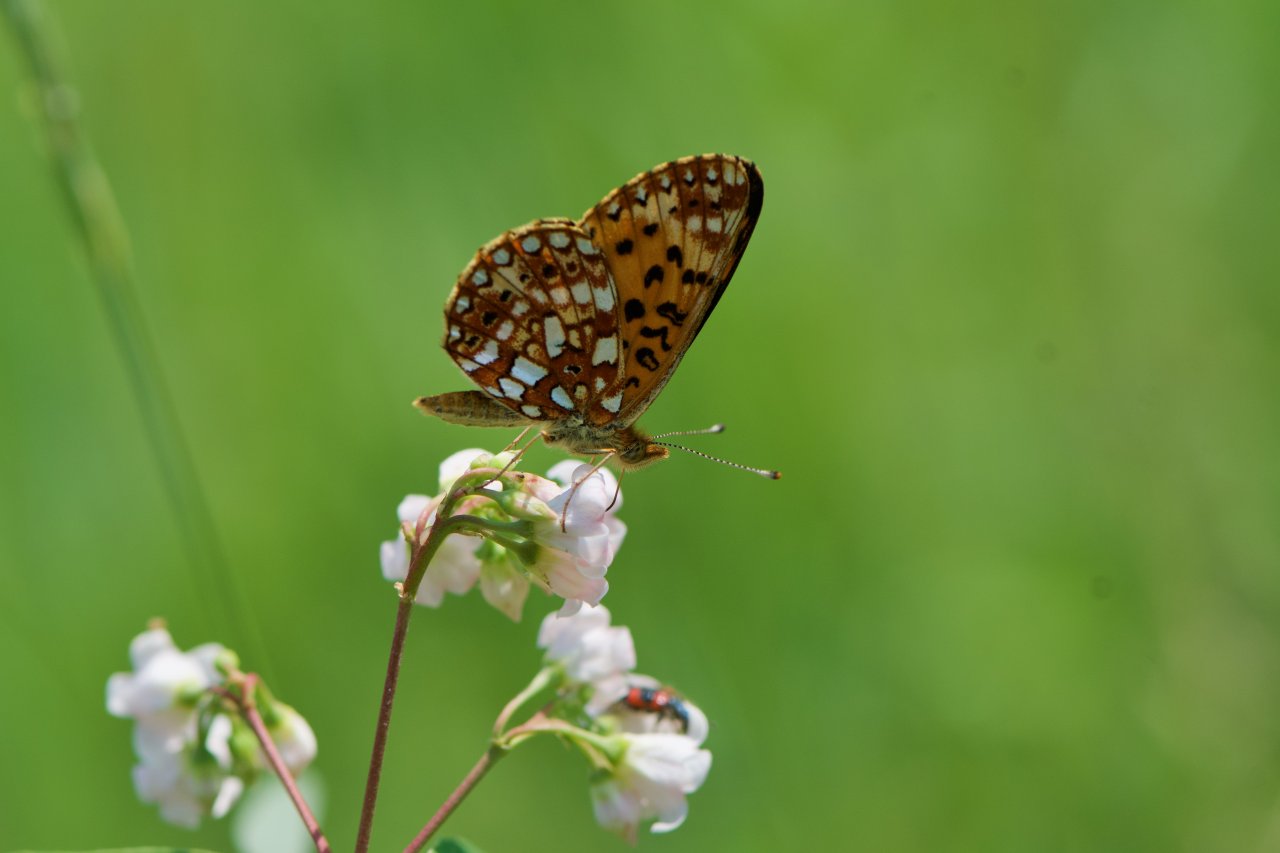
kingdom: Animalia
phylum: Arthropoda
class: Insecta
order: Lepidoptera
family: Nymphalidae
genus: Boloria
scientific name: Boloria selene
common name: Silver-bordered Fritillary
